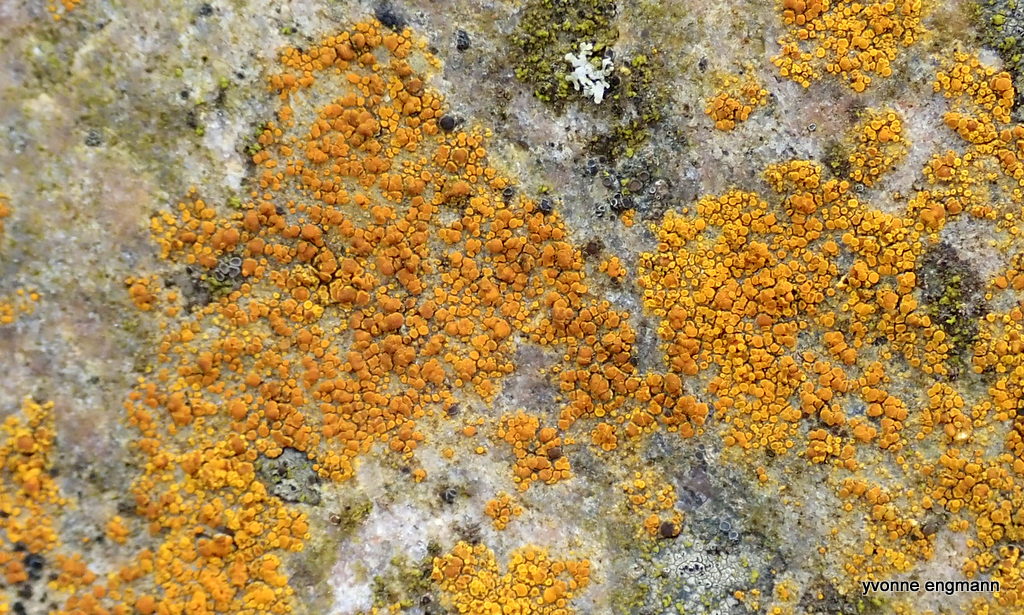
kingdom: Fungi
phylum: Ascomycota
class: Candelariomycetes
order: Candelariales
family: Candelariaceae
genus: Candelariella
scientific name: Candelariella vitellina
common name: almindelig æggeblommelav
